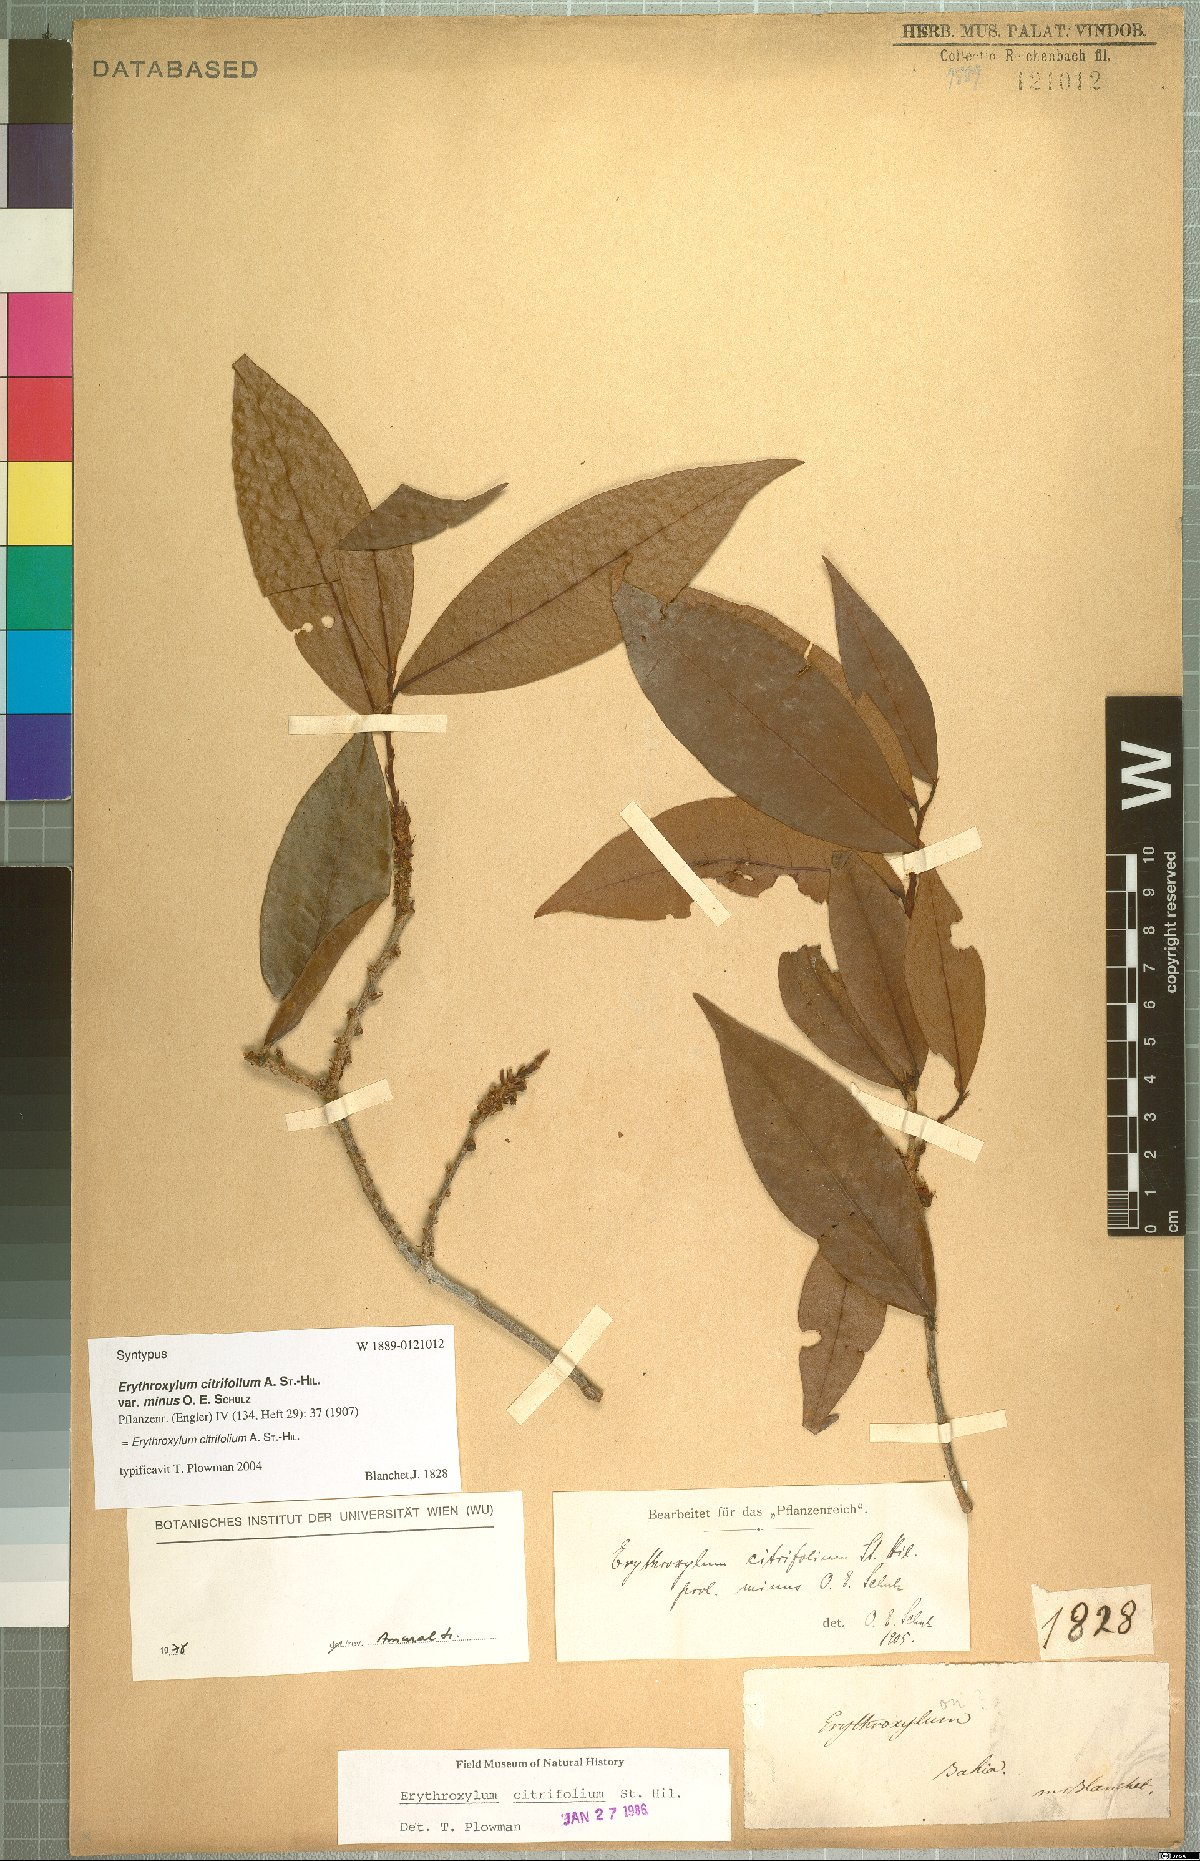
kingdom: Plantae
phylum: Tracheophyta
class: Magnoliopsida
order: Malpighiales
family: Erythroxylaceae
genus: Erythroxylum
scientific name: Erythroxylum citrifolium
